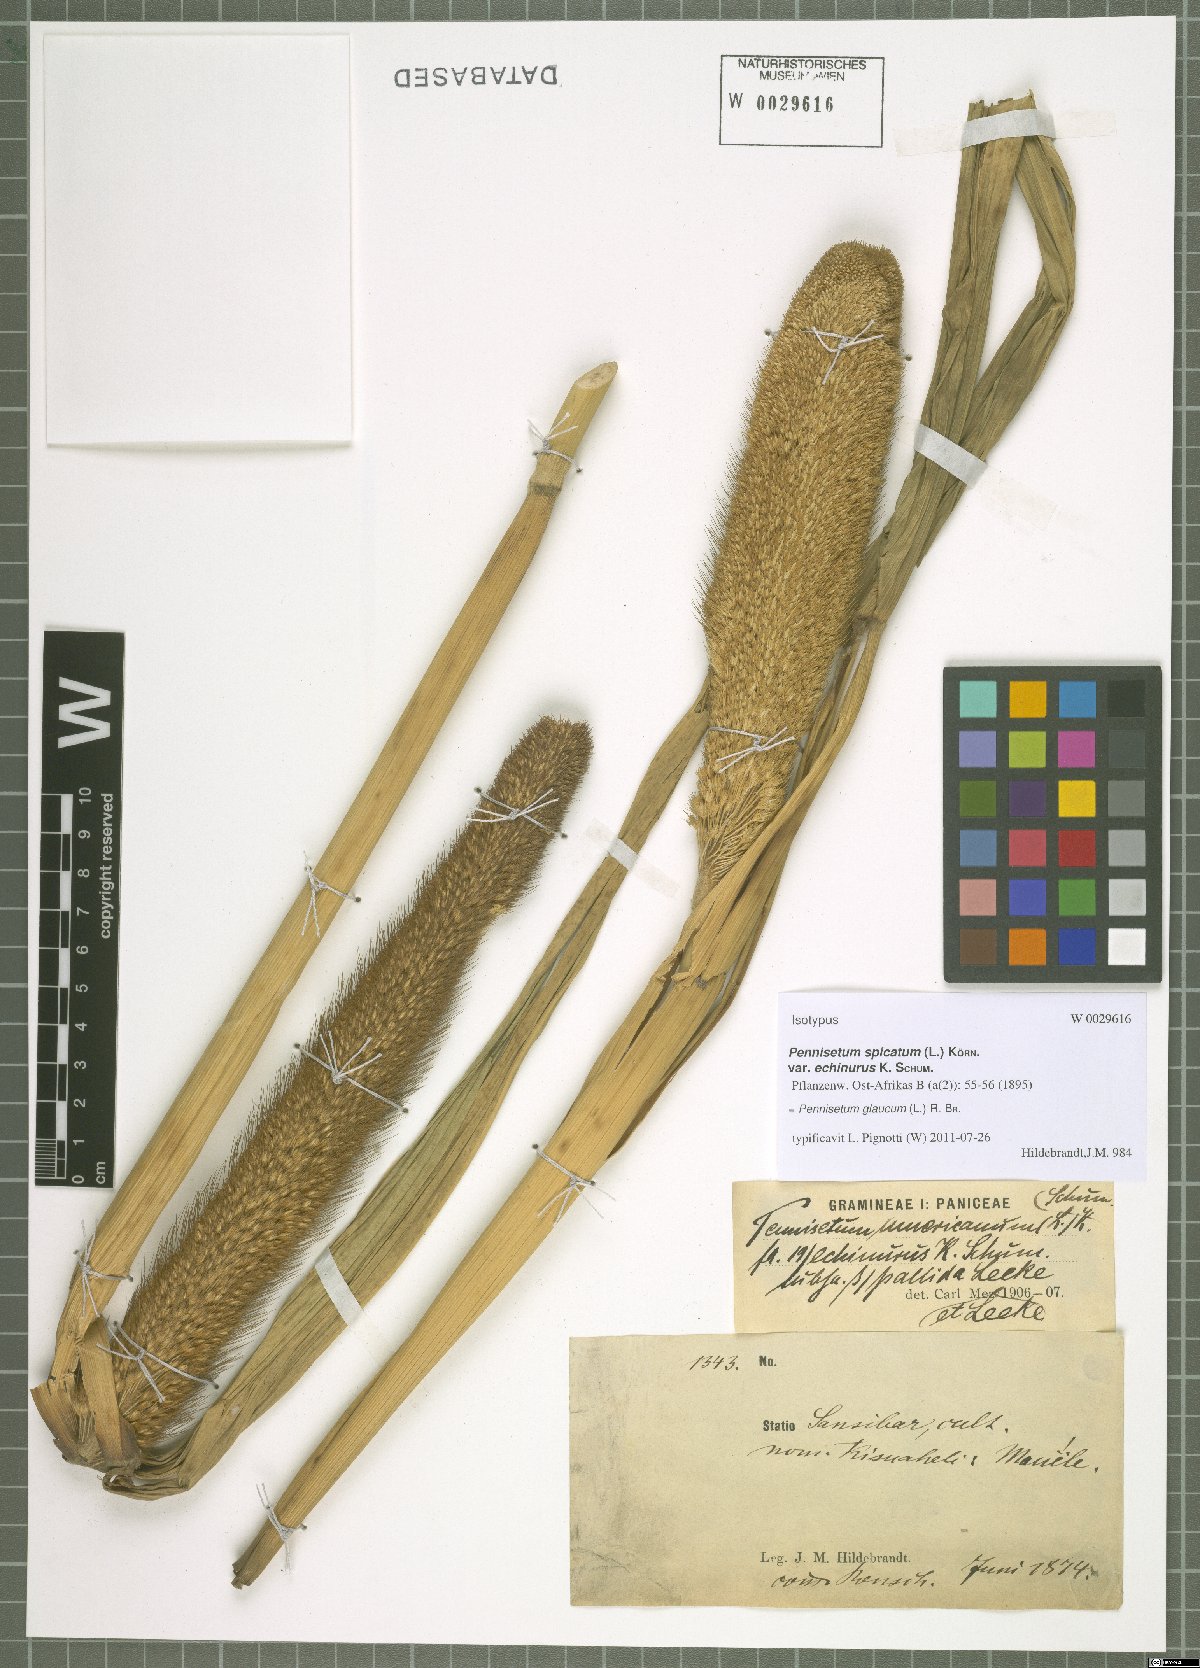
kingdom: Plantae
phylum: Tracheophyta
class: Liliopsida
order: Poales
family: Poaceae
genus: Cenchrus
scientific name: Cenchrus americanus
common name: Pearl millet
